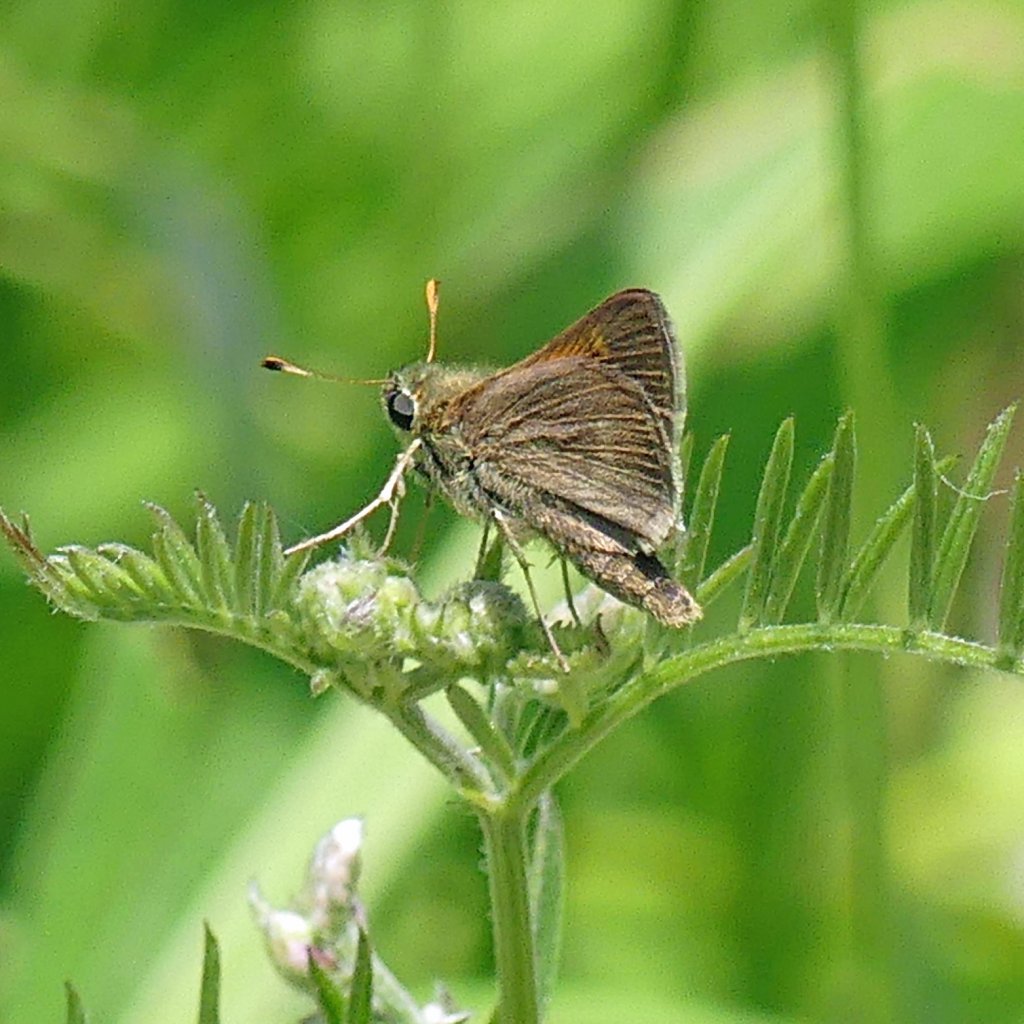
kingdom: Animalia
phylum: Arthropoda
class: Insecta
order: Lepidoptera
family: Hesperiidae
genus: Polites
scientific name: Polites themistocles
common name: Tawny-edged Skipper
